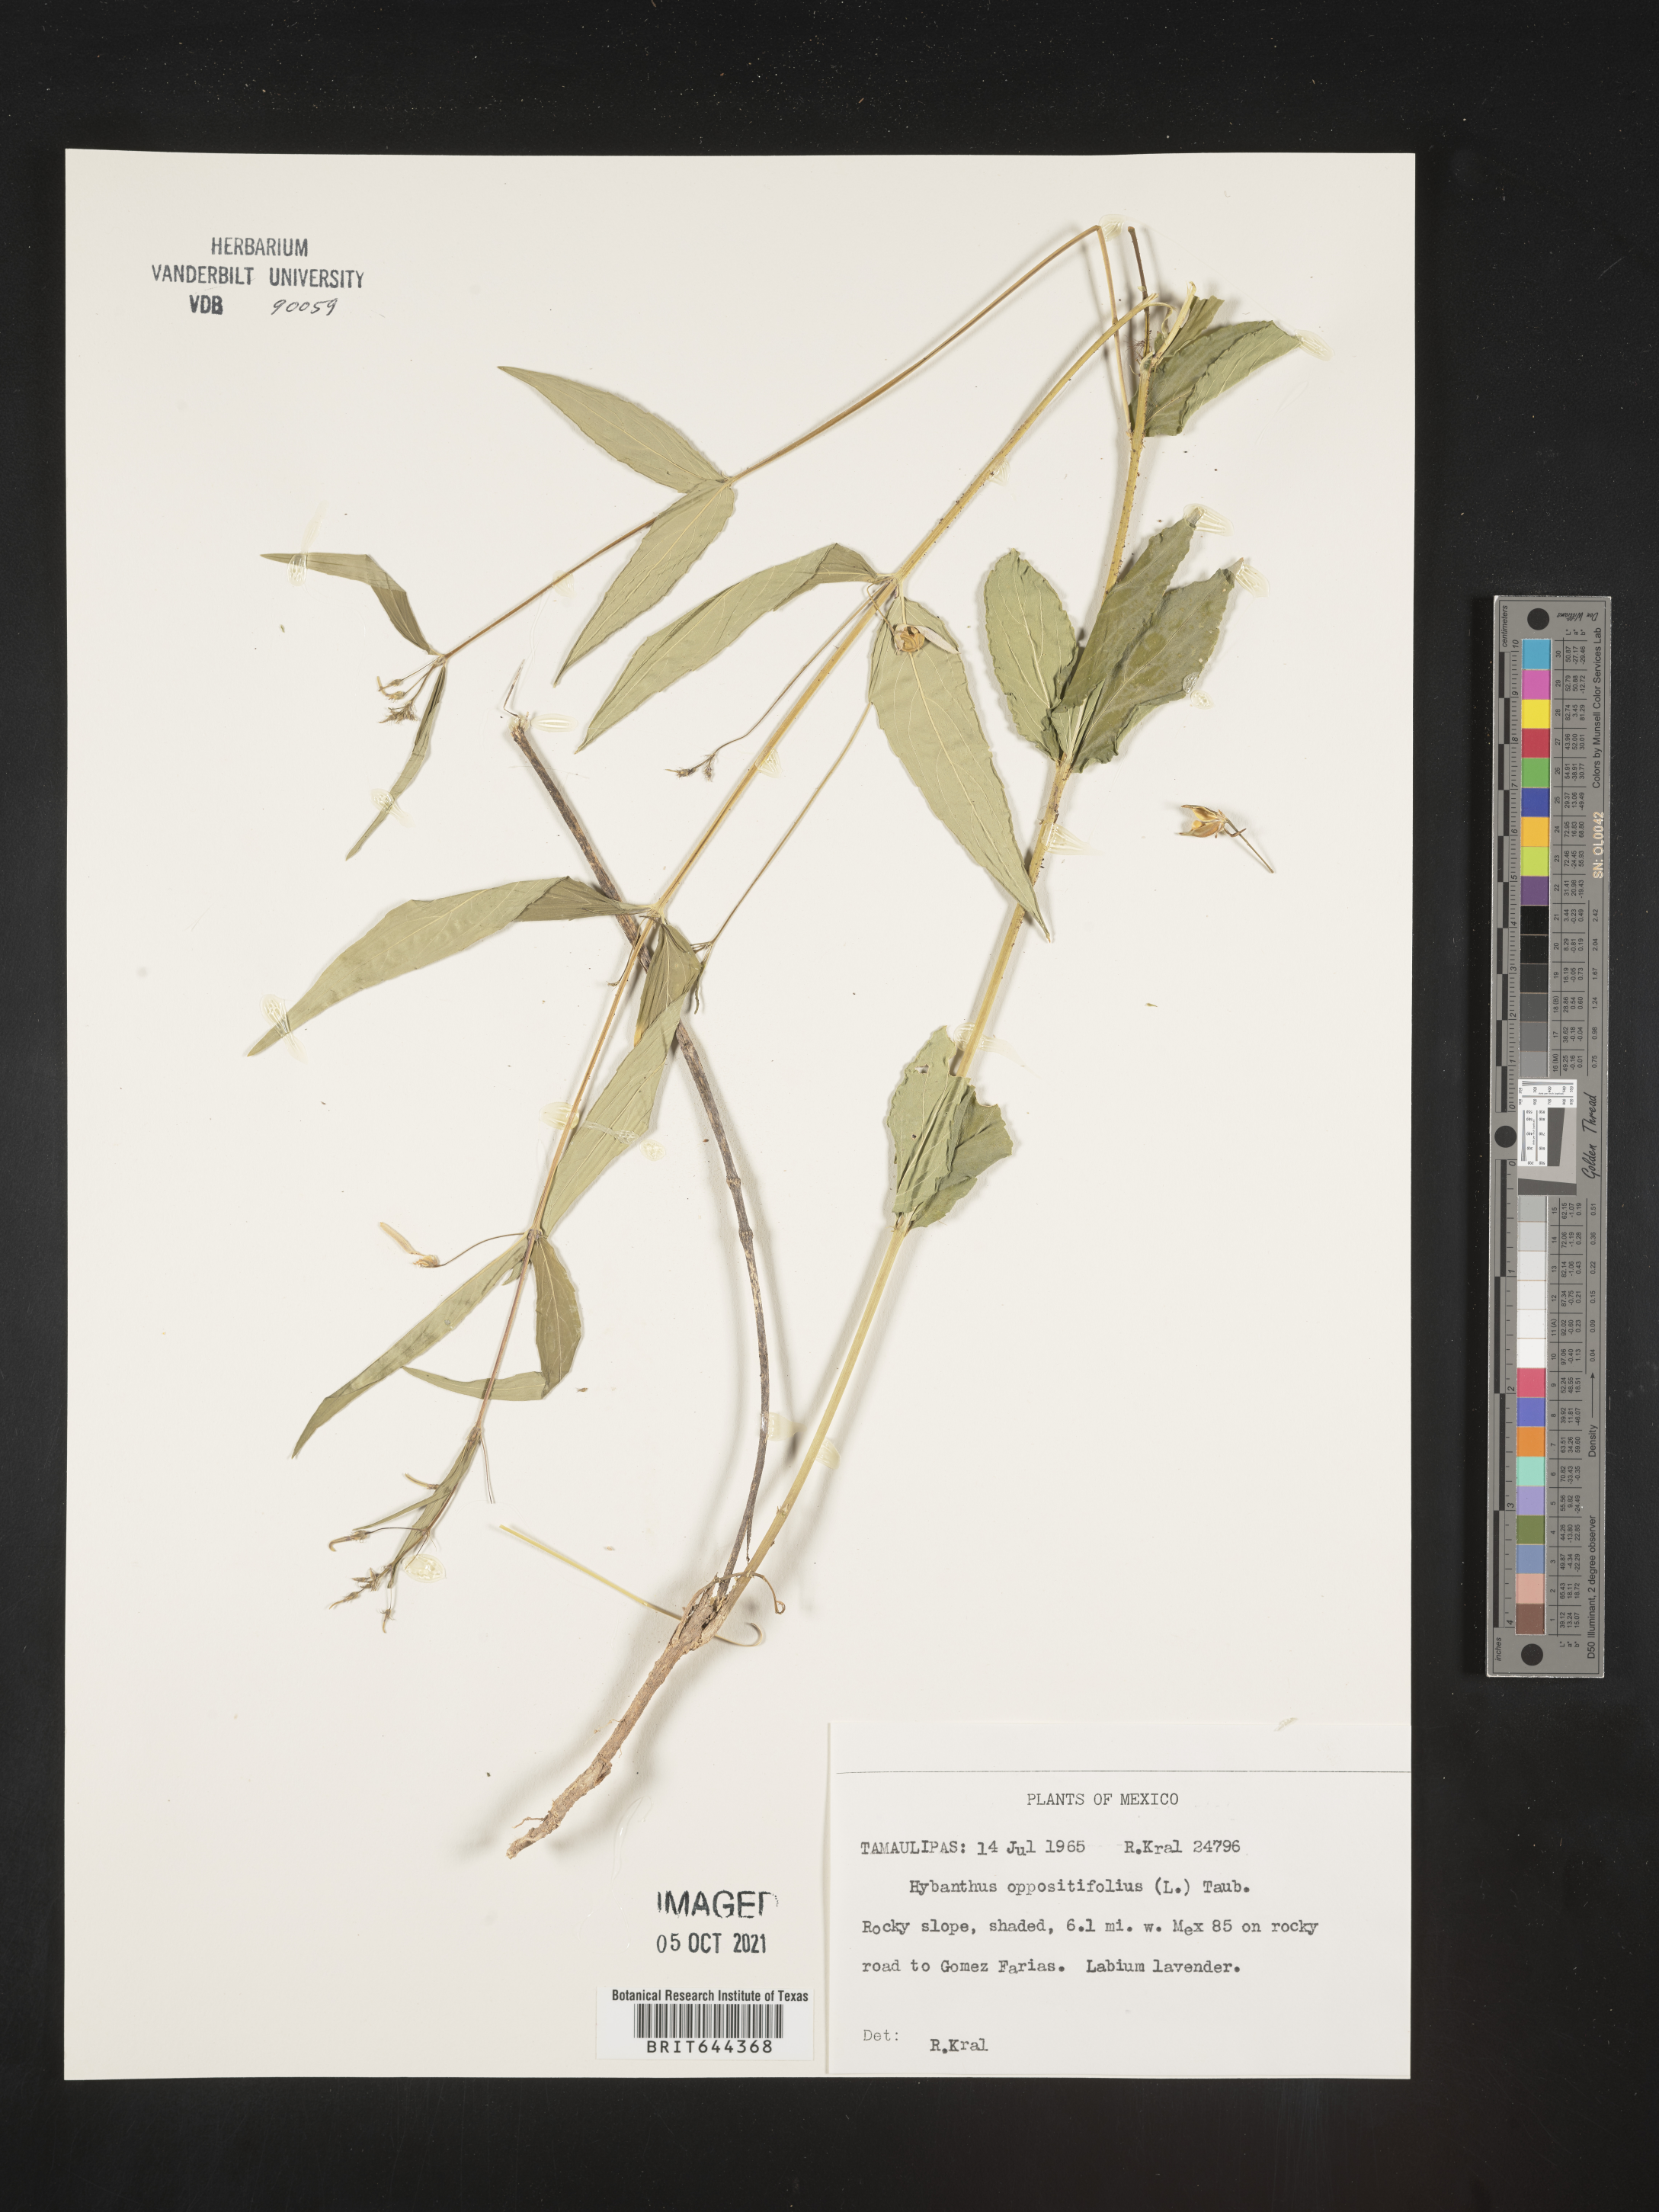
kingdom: Plantae
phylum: Tracheophyta
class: Magnoliopsida
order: Malpighiales
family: Violaceae
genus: Hybanthus
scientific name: Hybanthus
